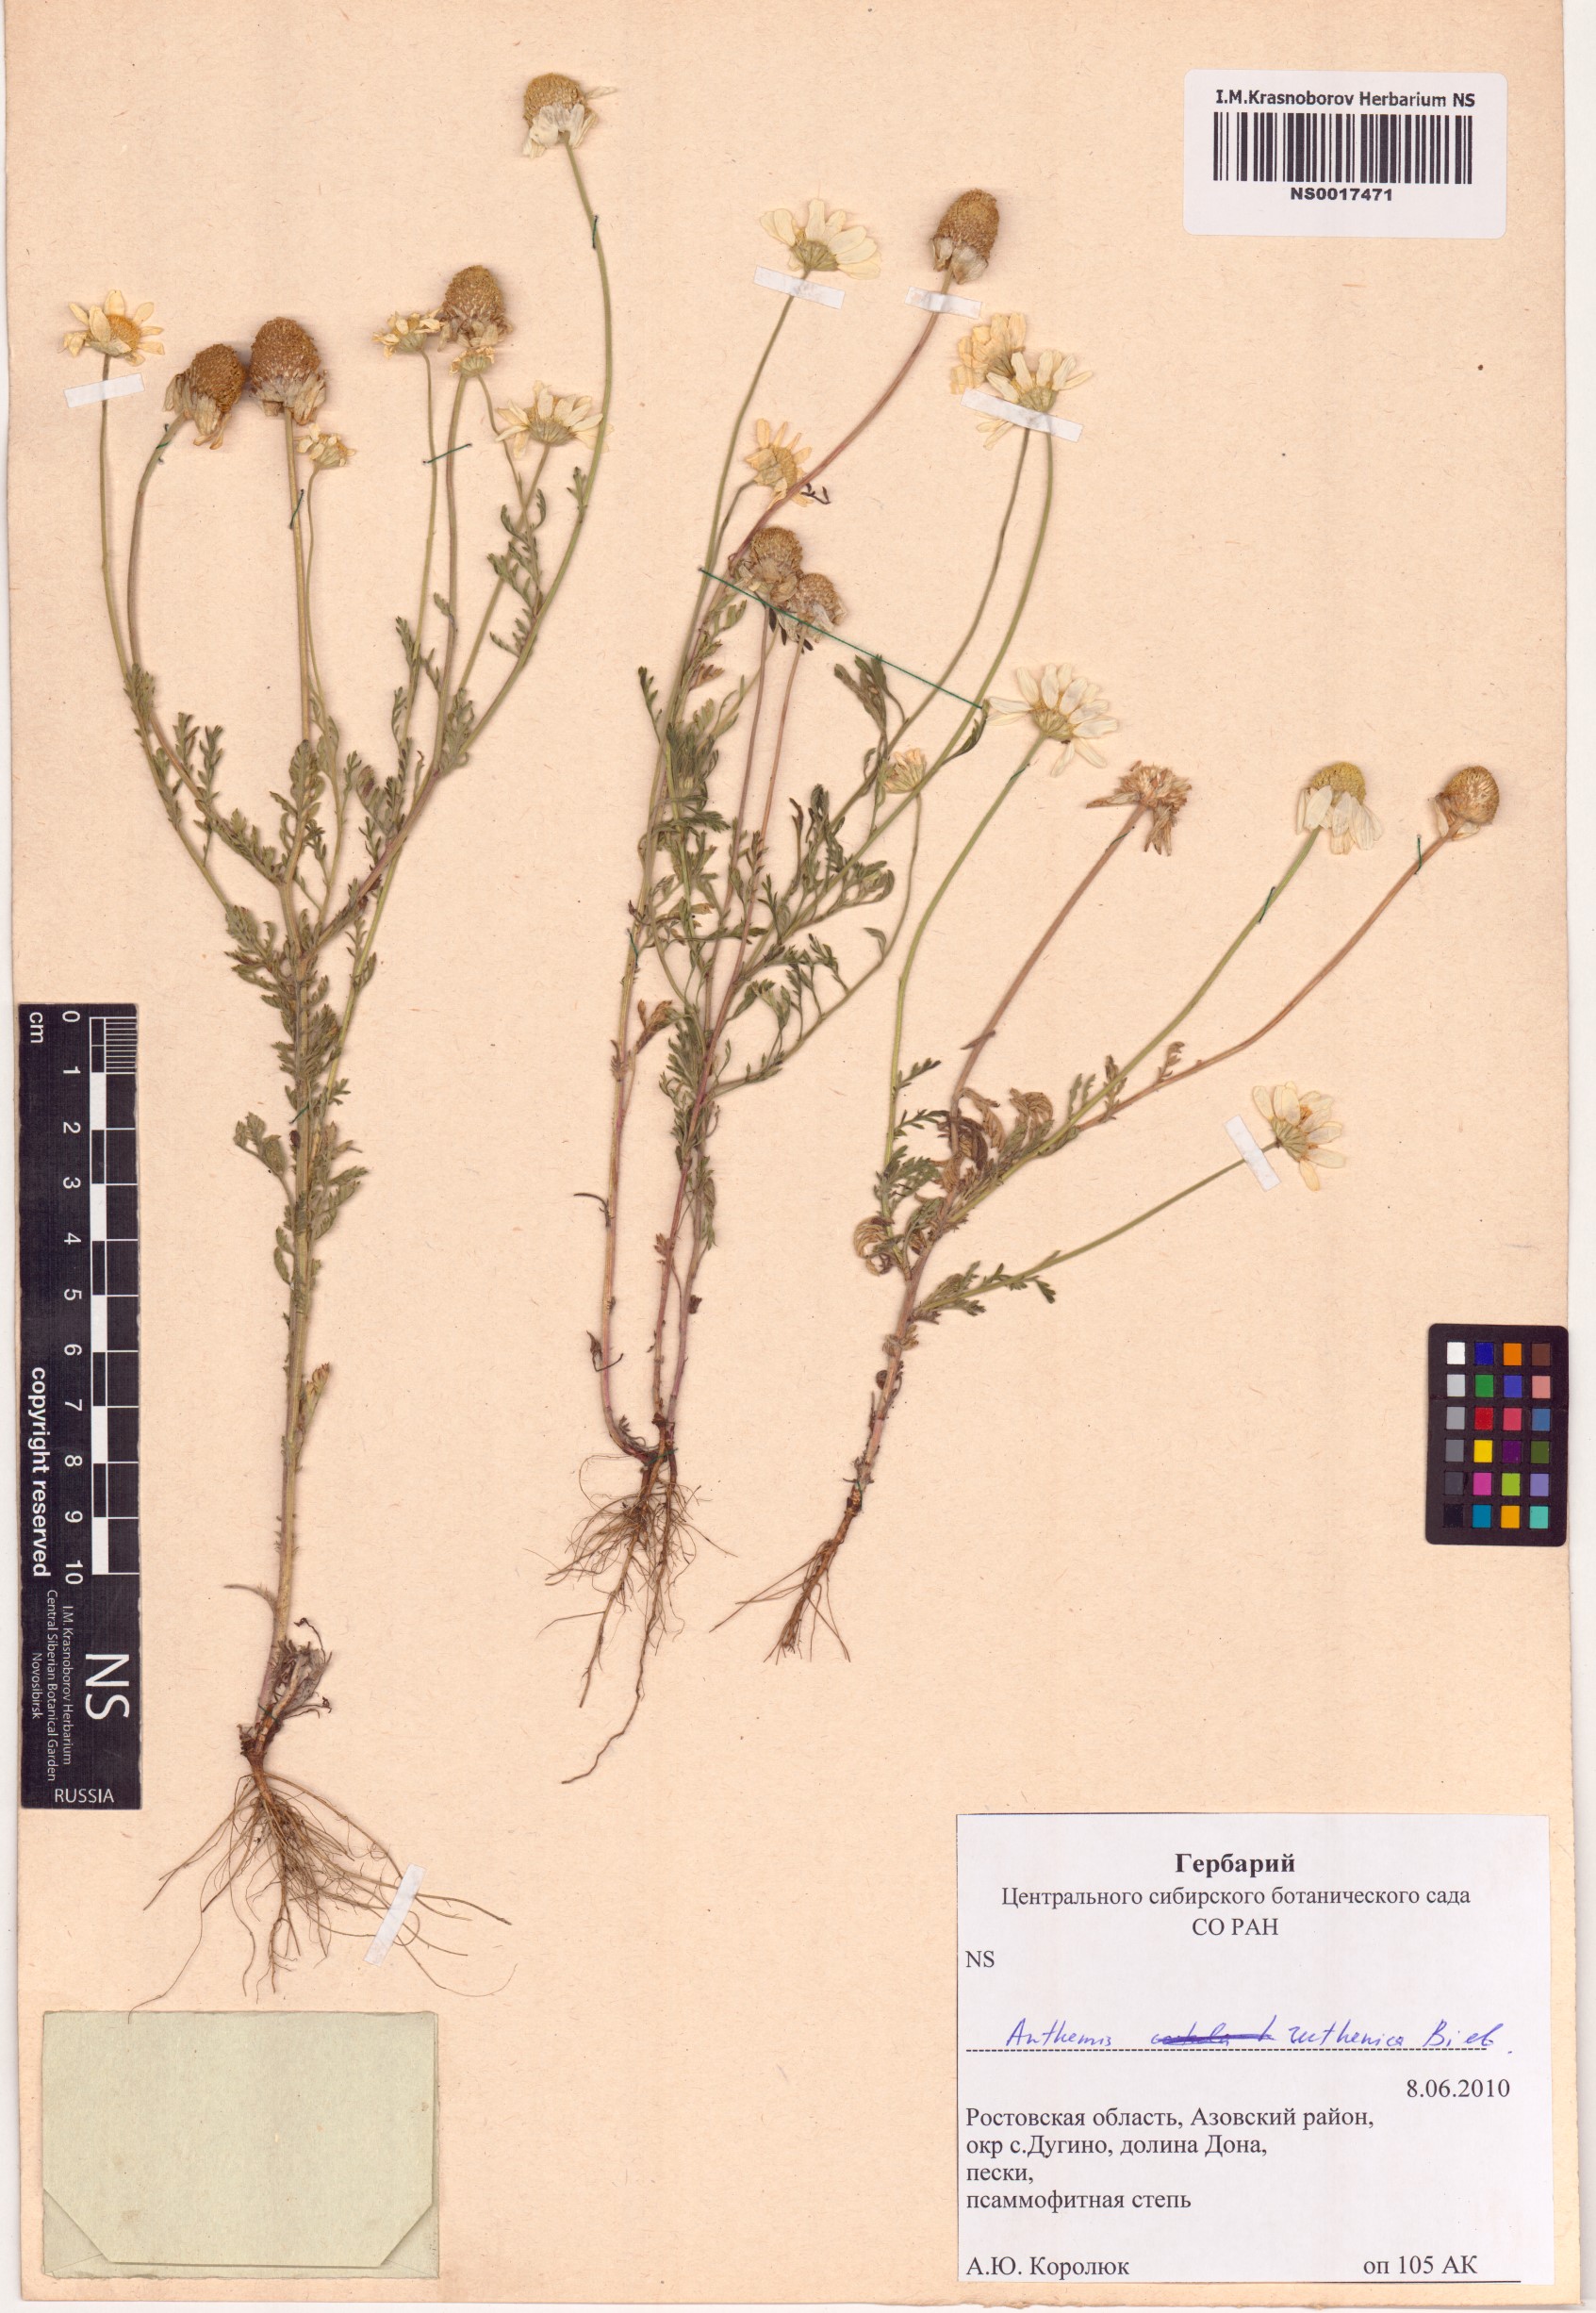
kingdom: Plantae
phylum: Tracheophyta
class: Magnoliopsida
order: Asterales
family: Asteraceae
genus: Anthemis
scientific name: Anthemis ruthenica
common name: Eastern chamomile
